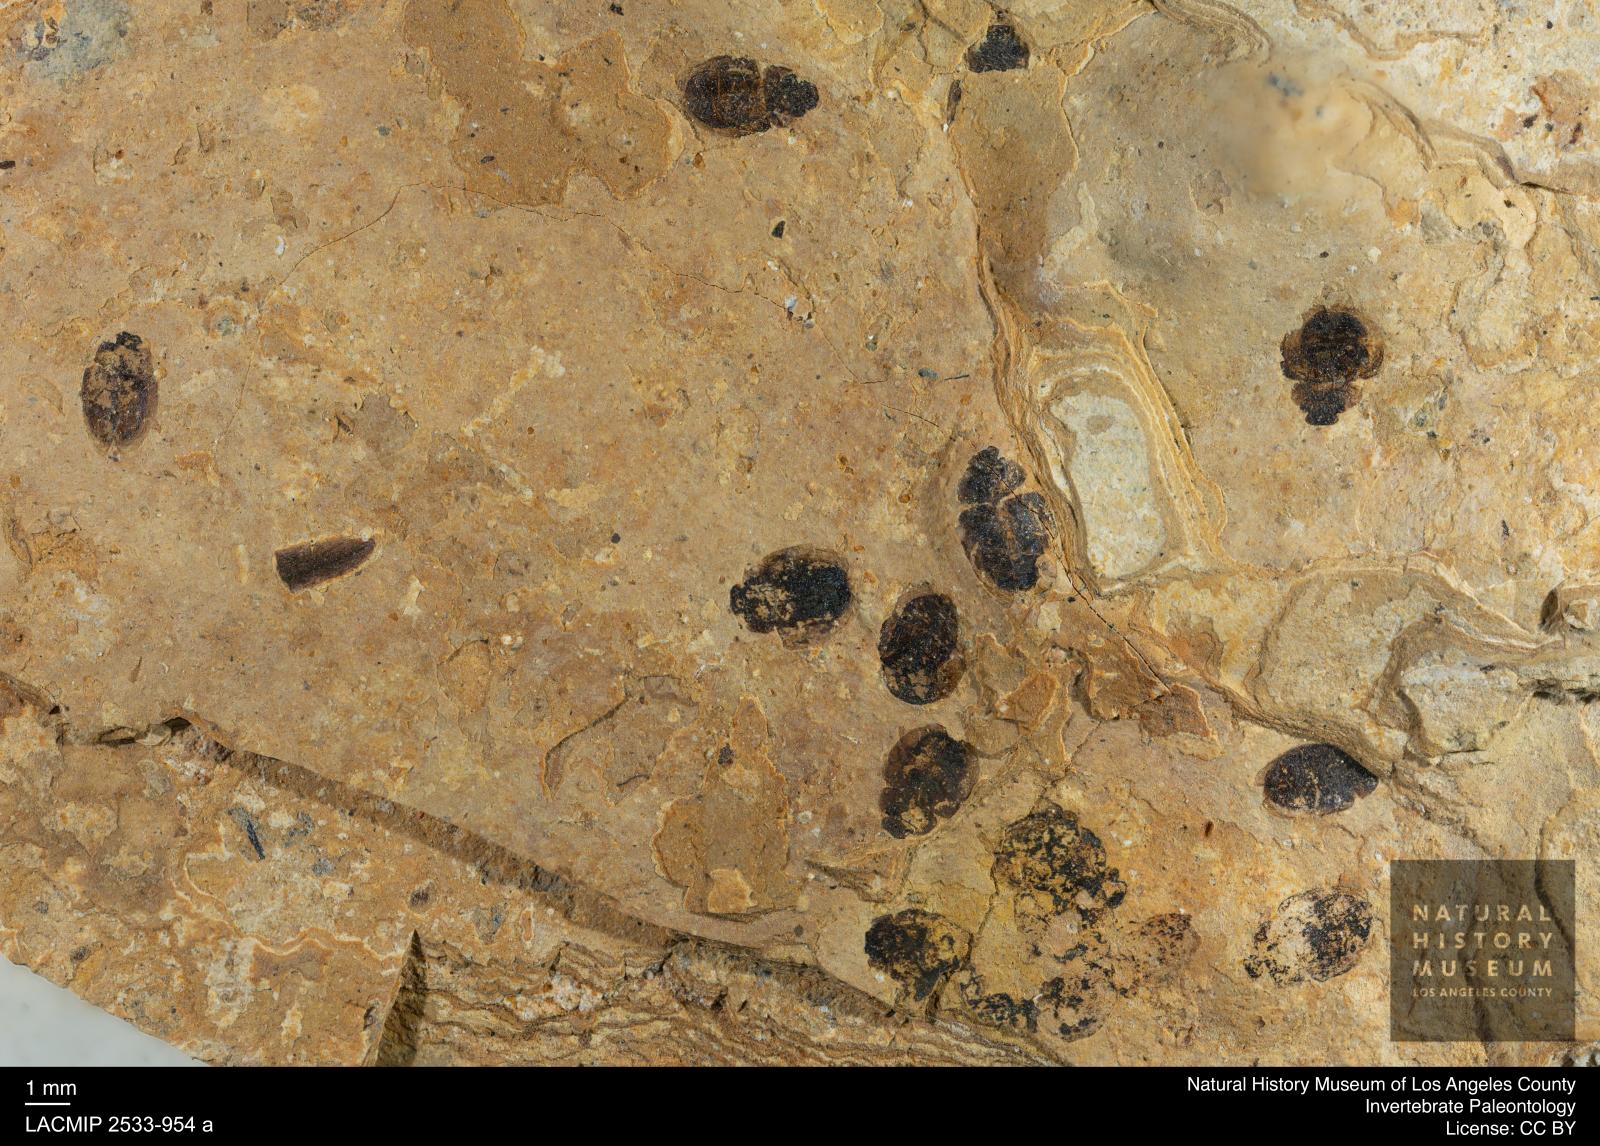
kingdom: Animalia
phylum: Arthropoda
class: Insecta
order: Coleoptera
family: Hydrophilidae
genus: Paracymus
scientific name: Paracymus excitatus
